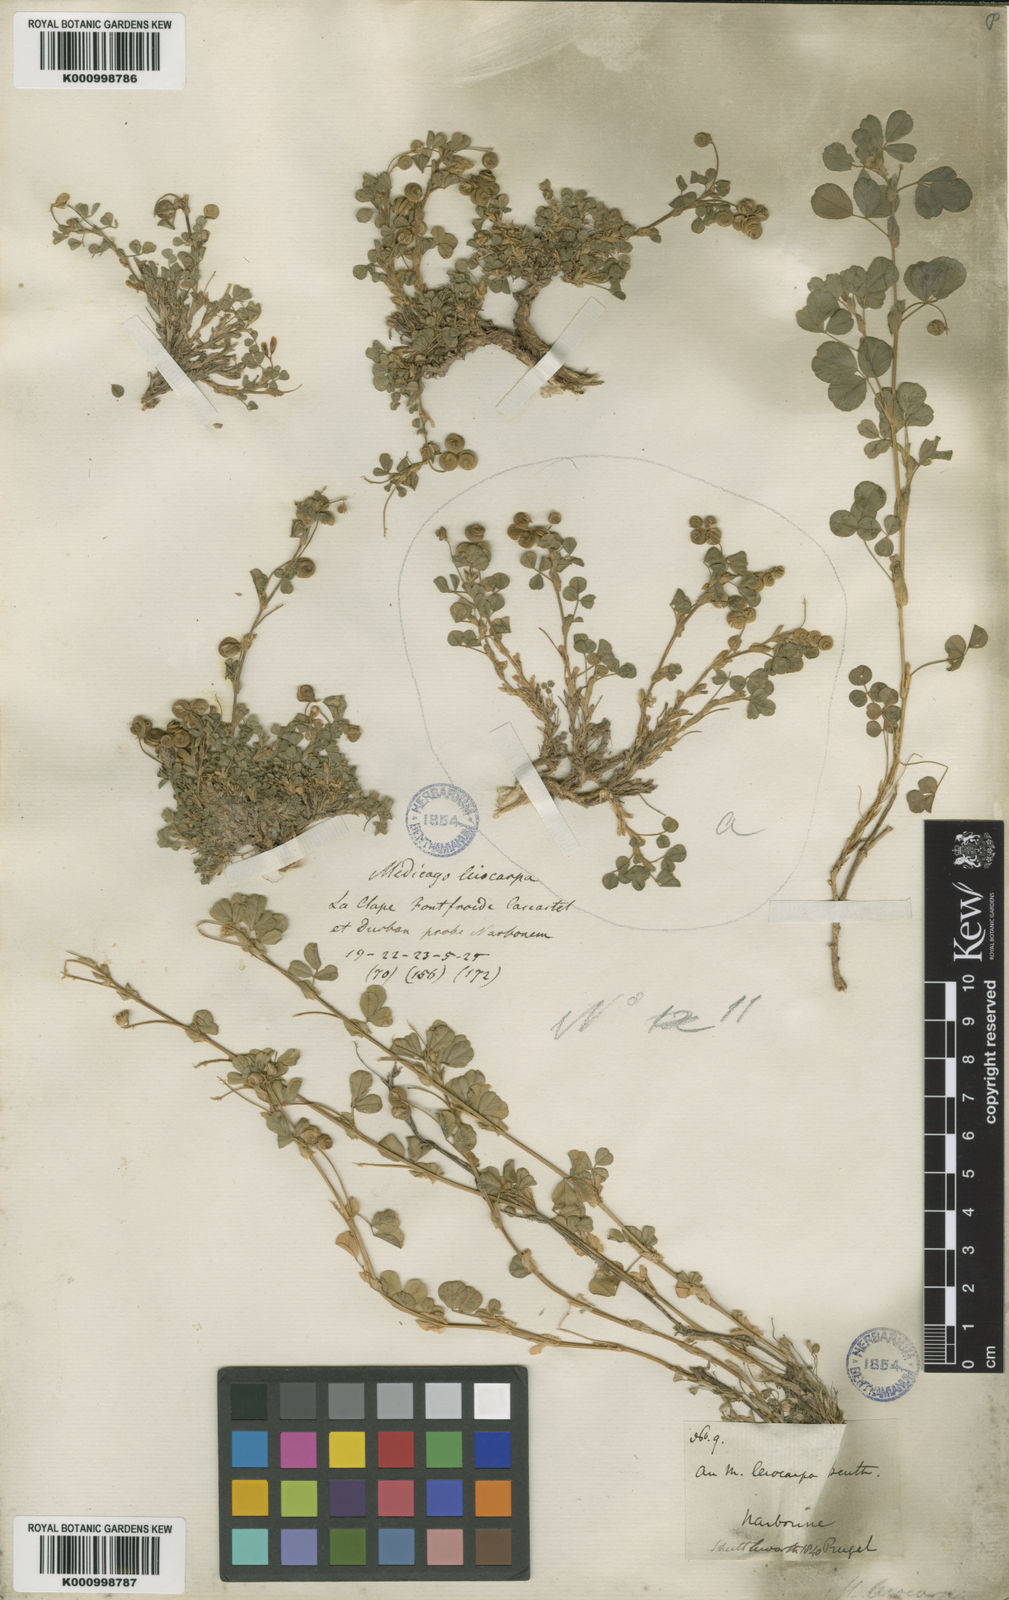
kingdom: Plantae
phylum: Tracheophyta
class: Magnoliopsida
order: Fabales
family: Fabaceae
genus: Medicago
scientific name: Medicago suffruticosa
